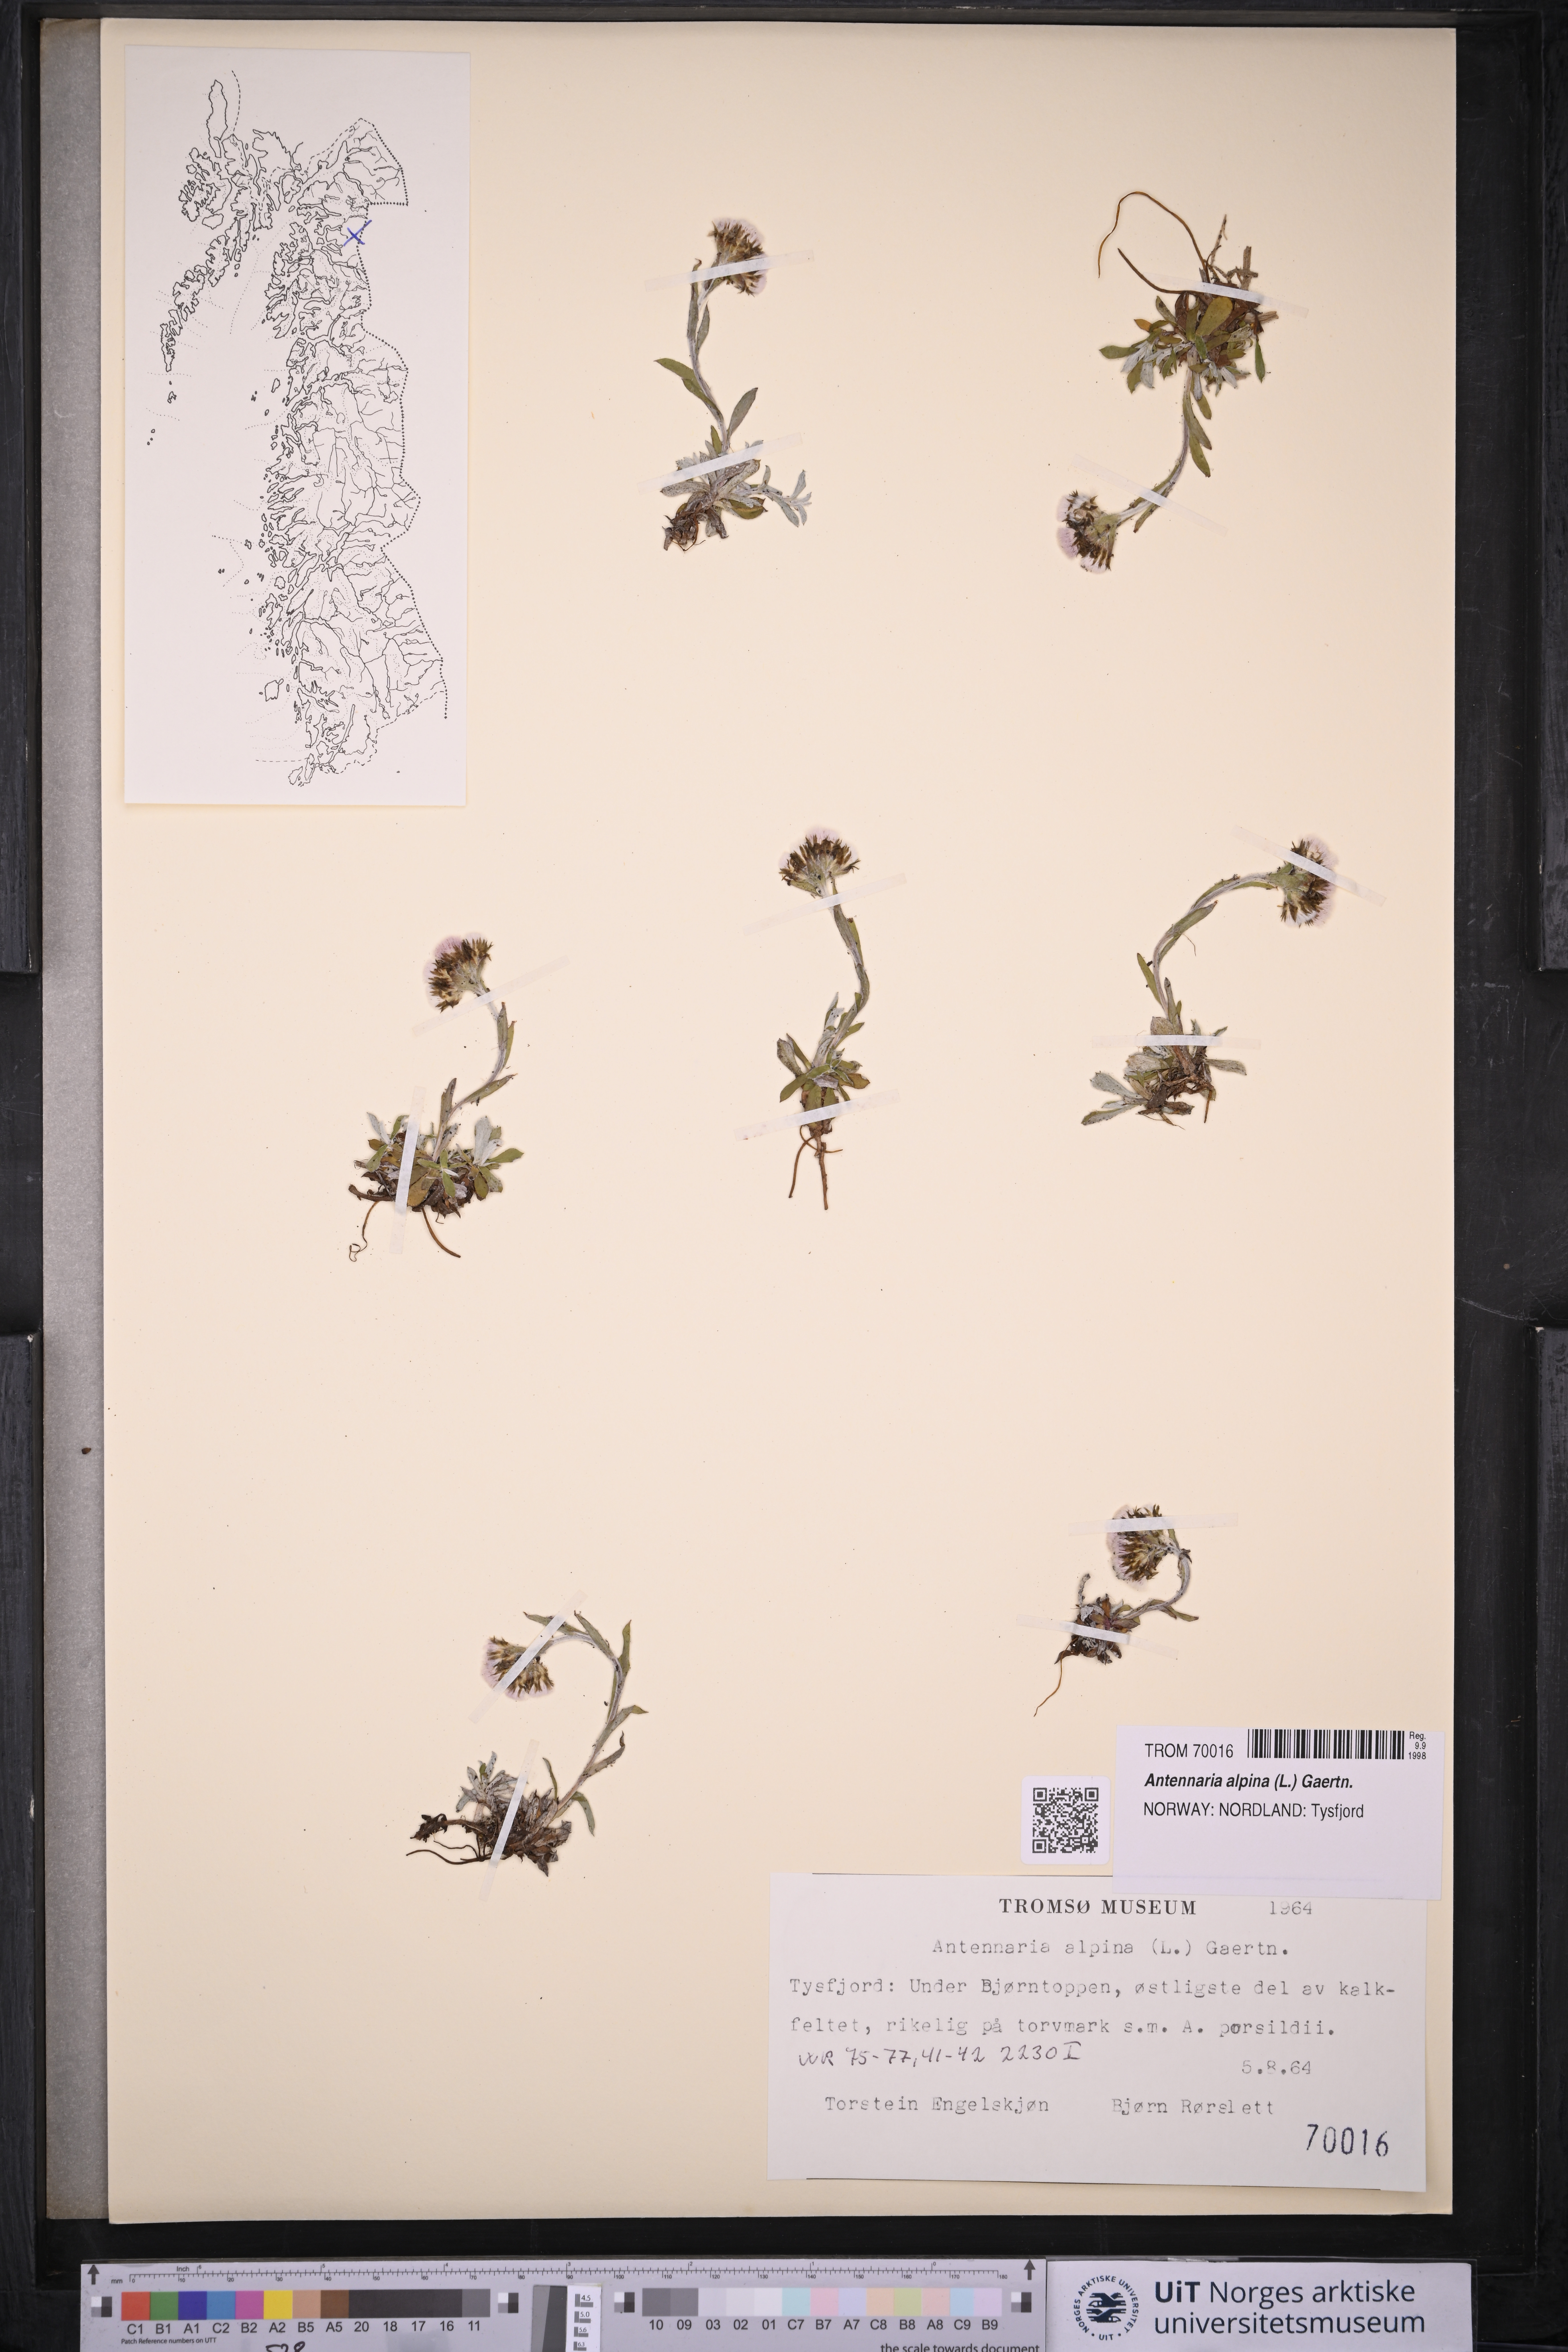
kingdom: Plantae
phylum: Tracheophyta
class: Magnoliopsida
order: Asterales
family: Asteraceae
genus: Antennaria
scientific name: Antennaria alpina
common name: Alpine pussytoes
